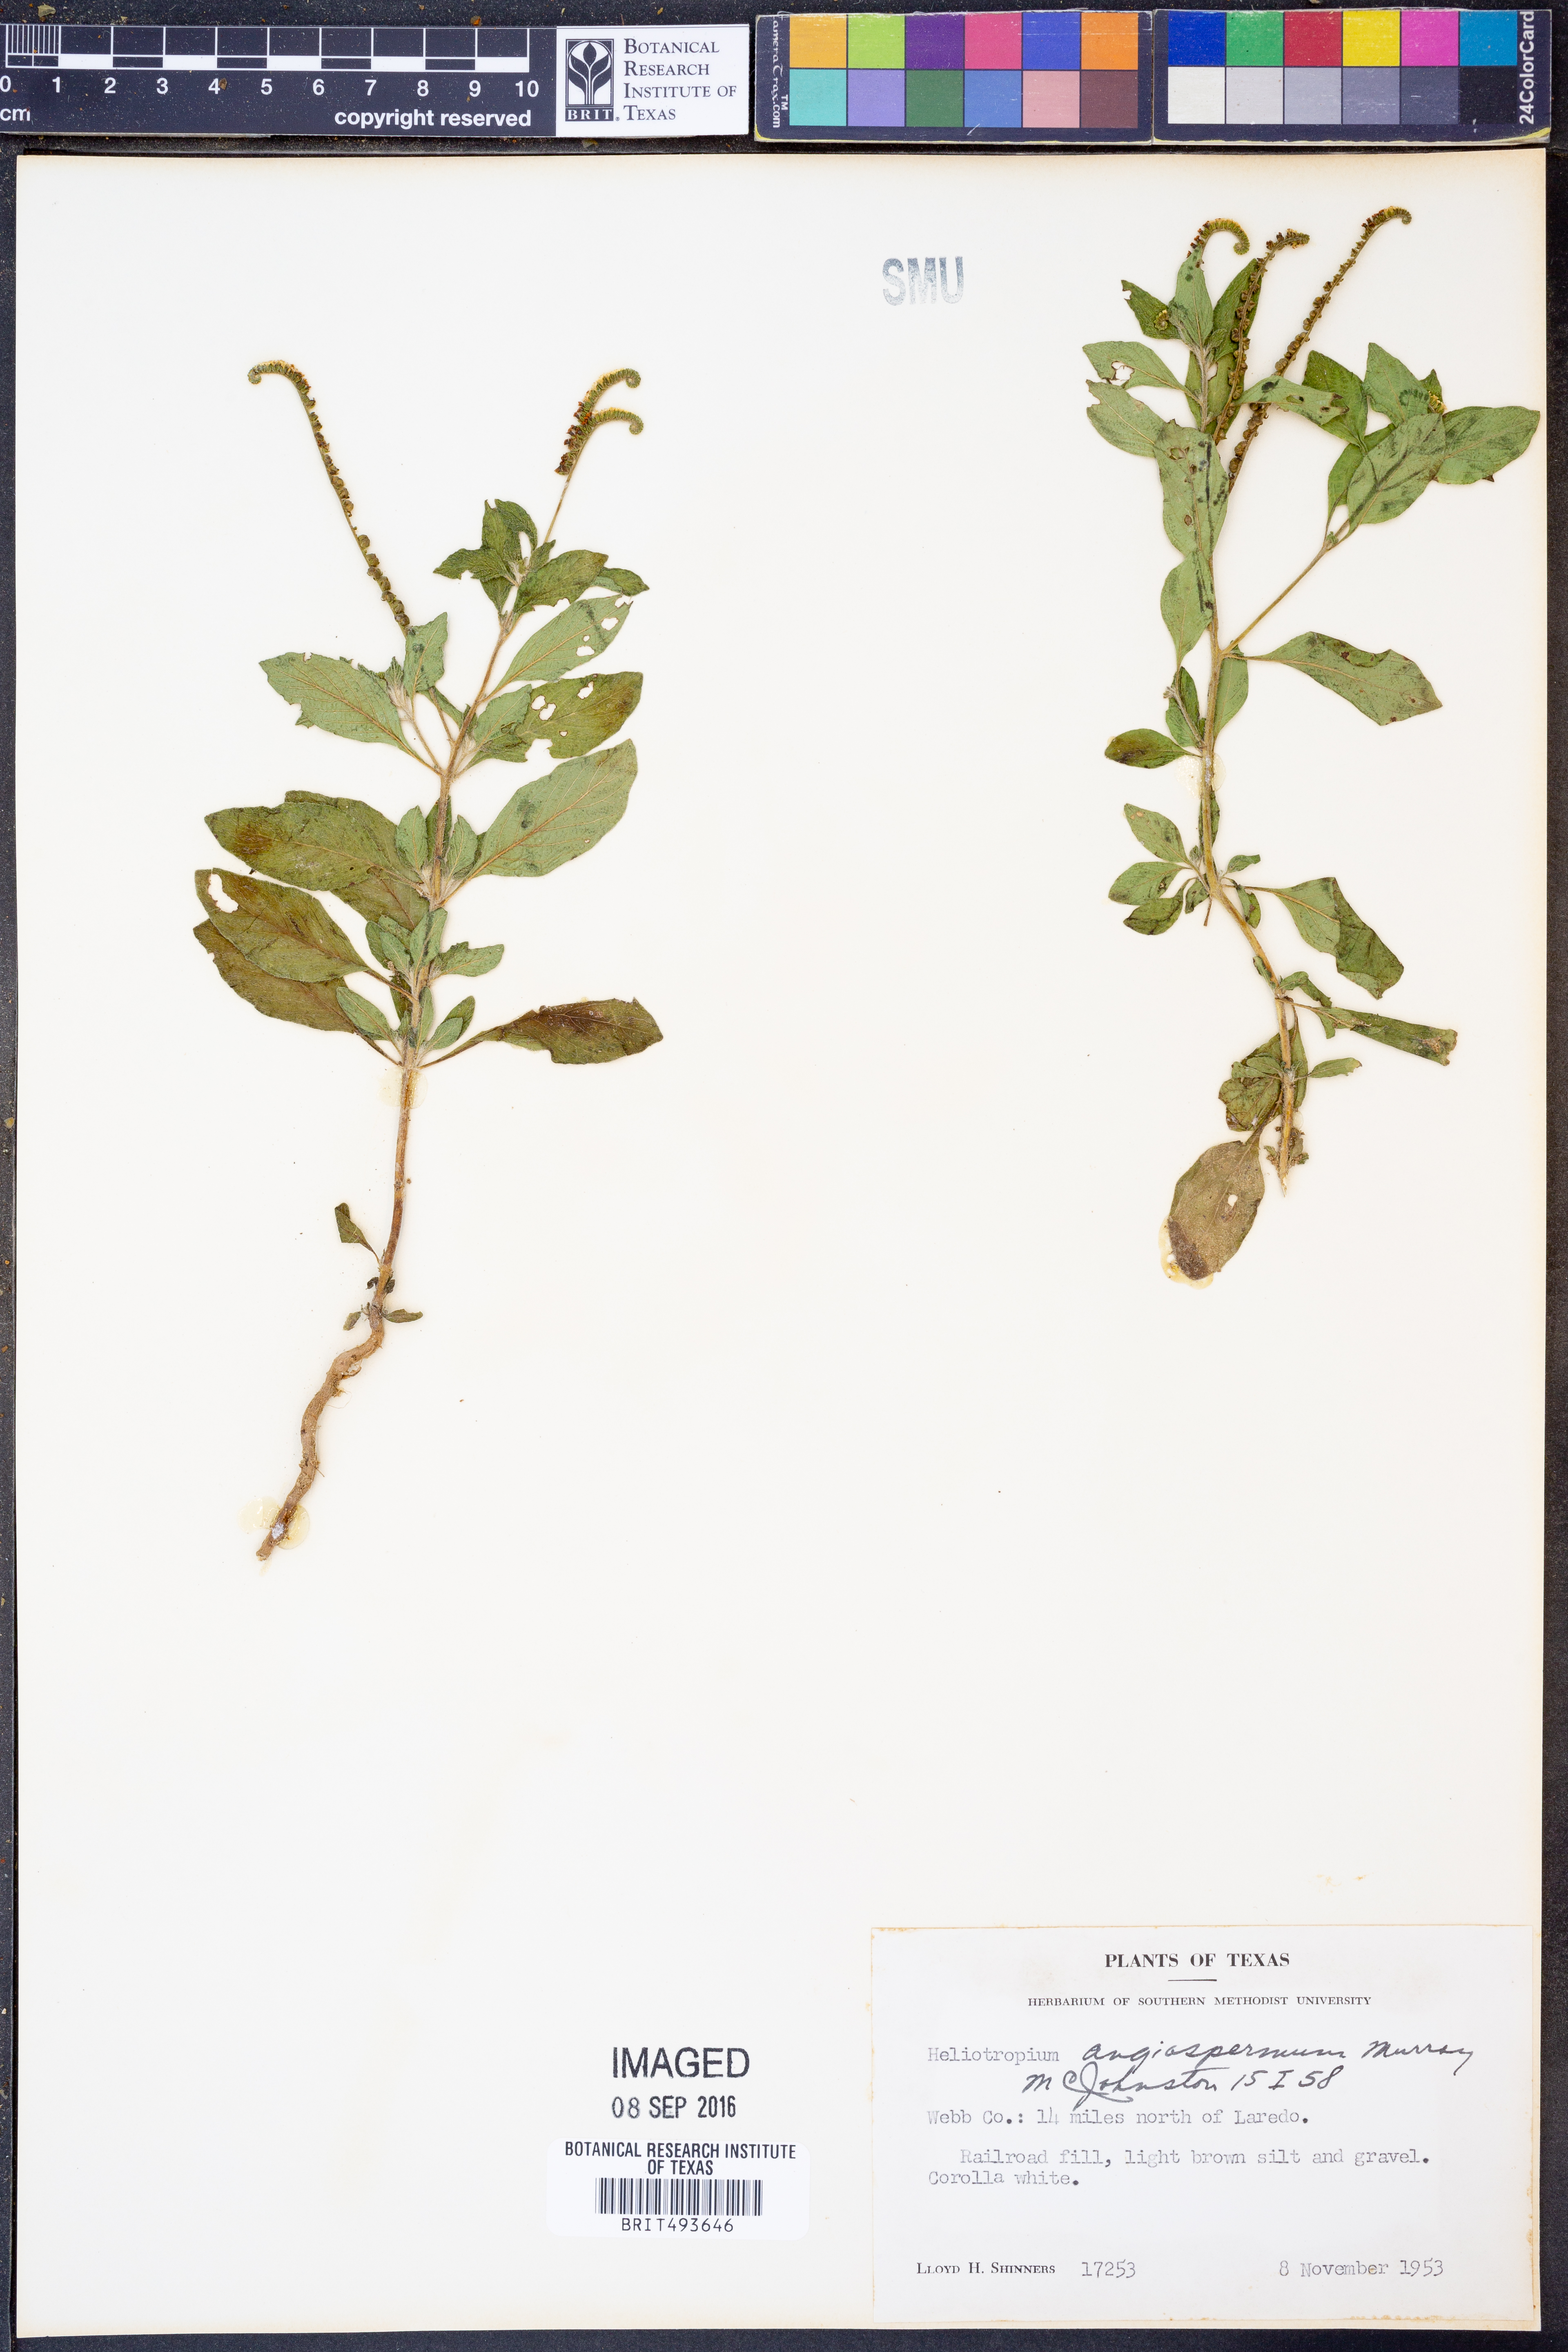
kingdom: Plantae
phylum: Tracheophyta
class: Magnoliopsida
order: Boraginales
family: Heliotropiaceae
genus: Heliotropium
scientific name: Heliotropium angiospermum
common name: Eye bright
